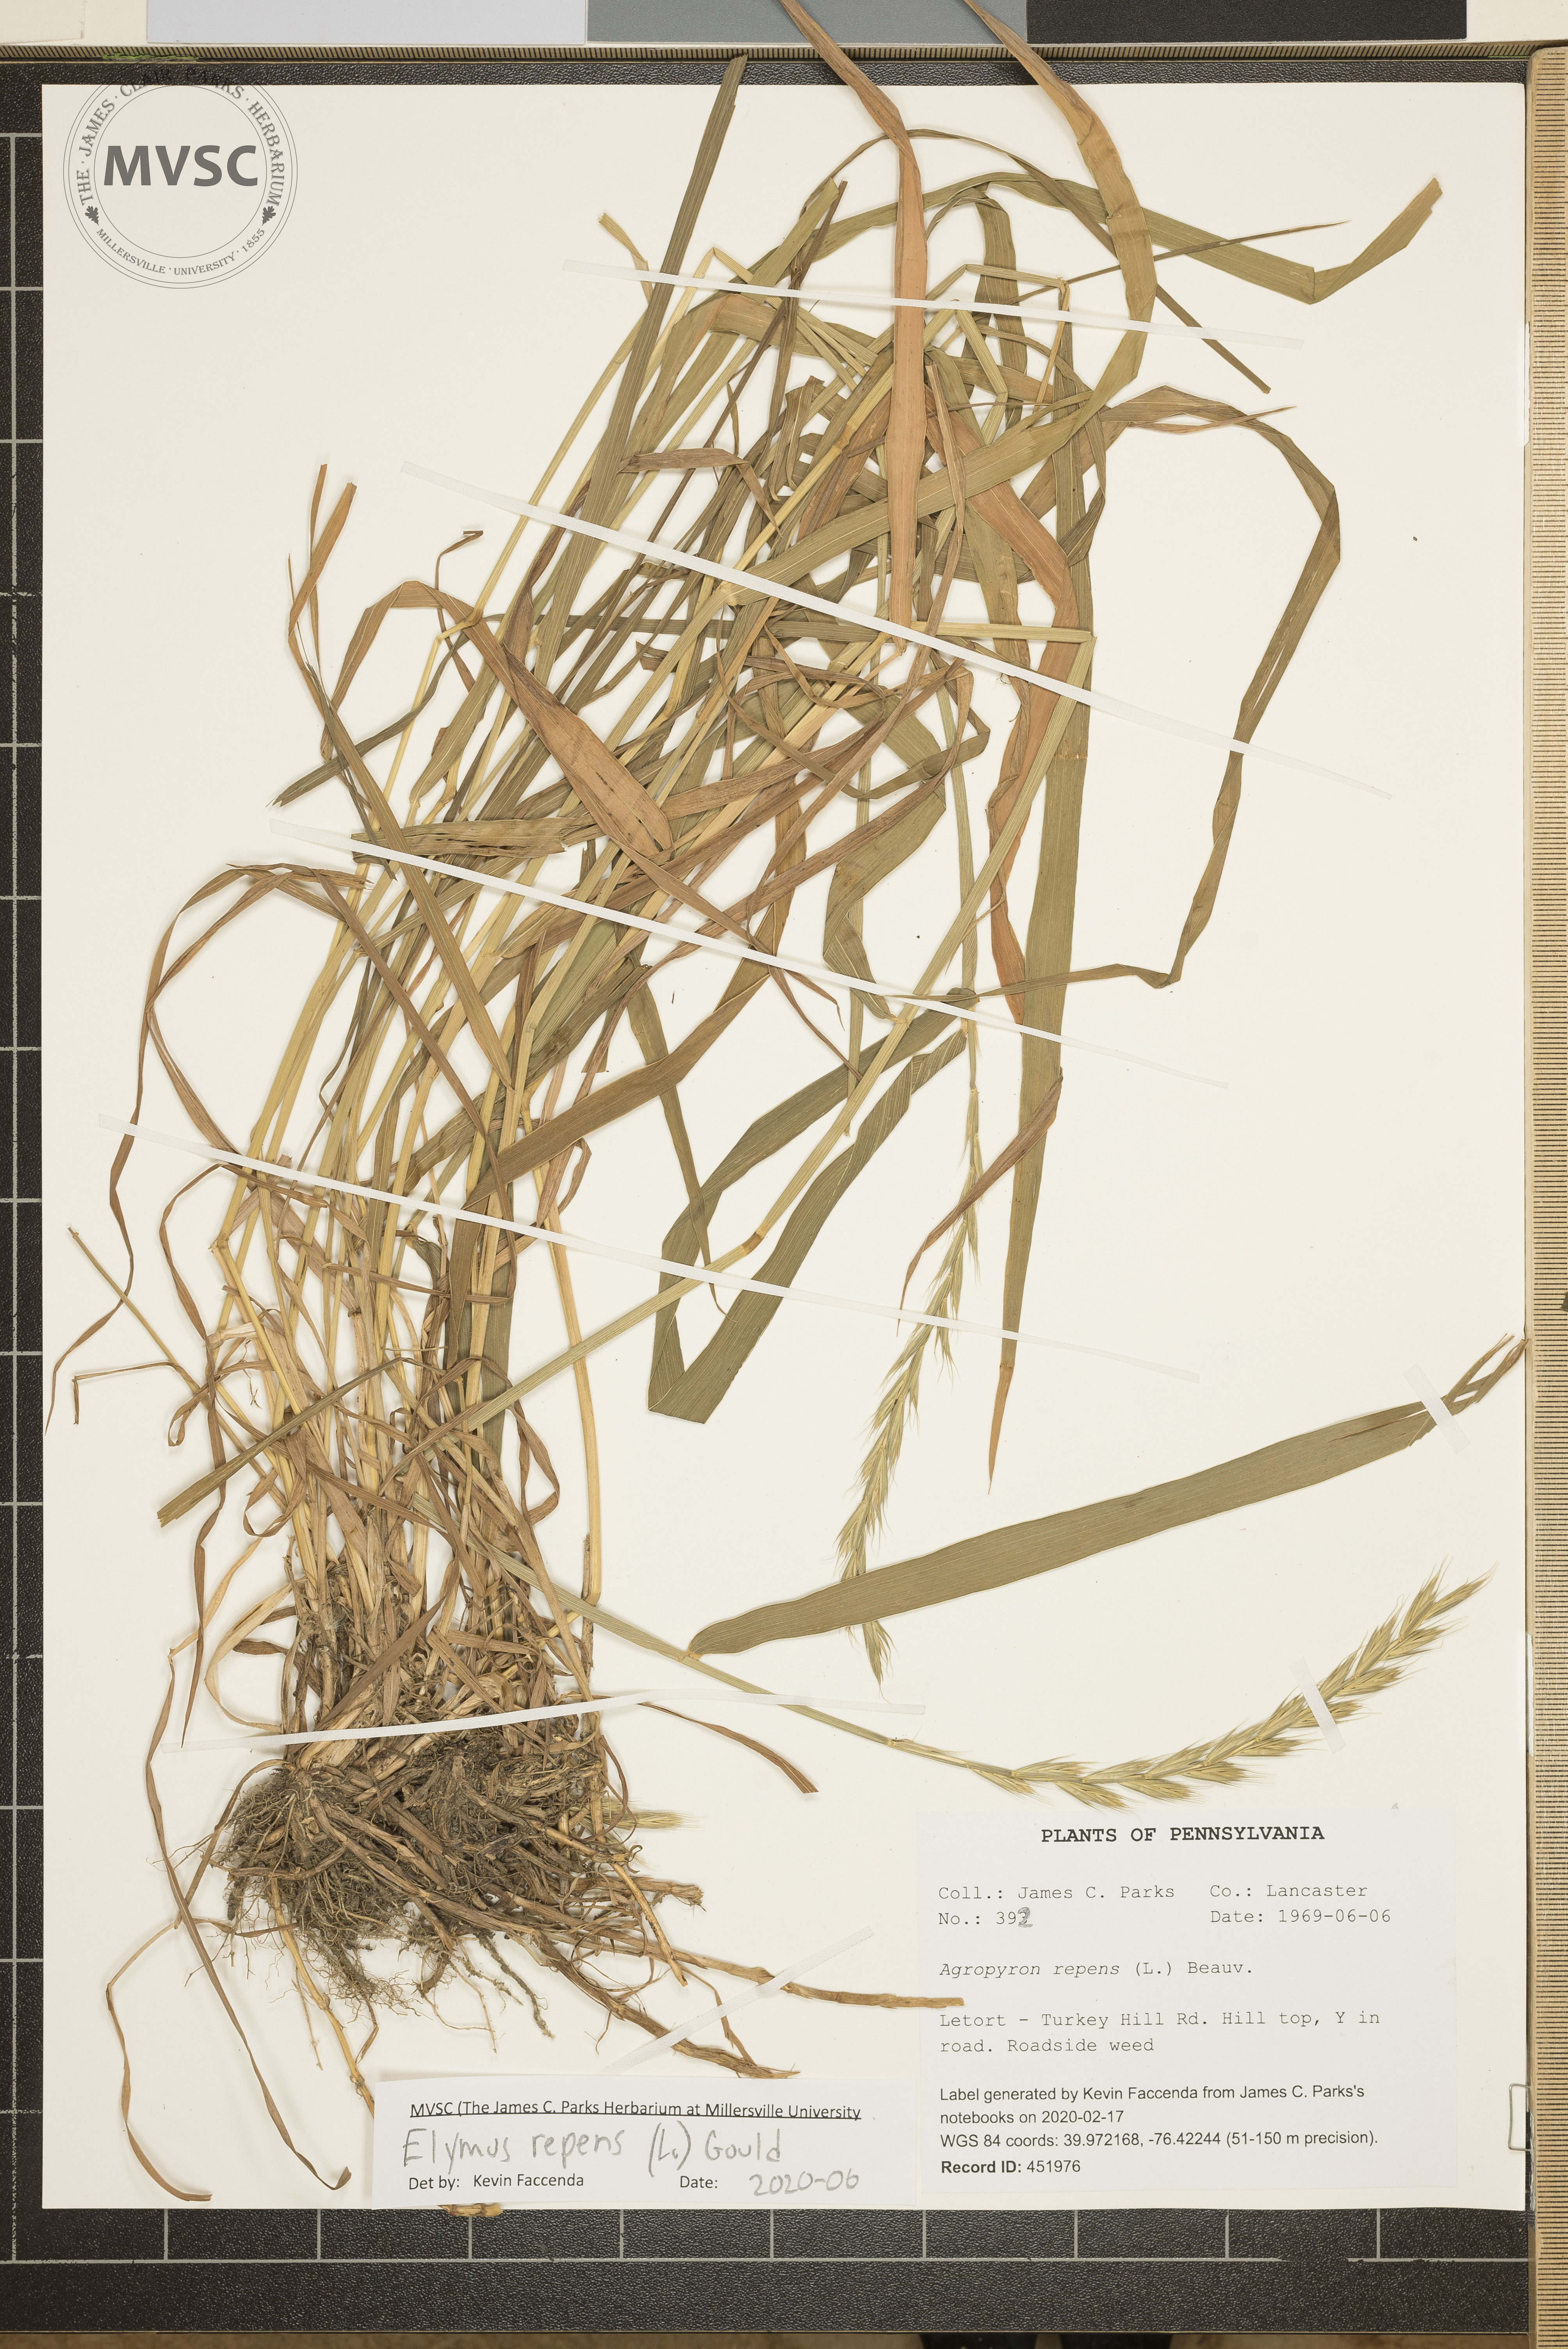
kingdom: Plantae
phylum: Tracheophyta
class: Liliopsida
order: Poales
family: Poaceae
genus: Elymus
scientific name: Elymus repens
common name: Quackgrass
